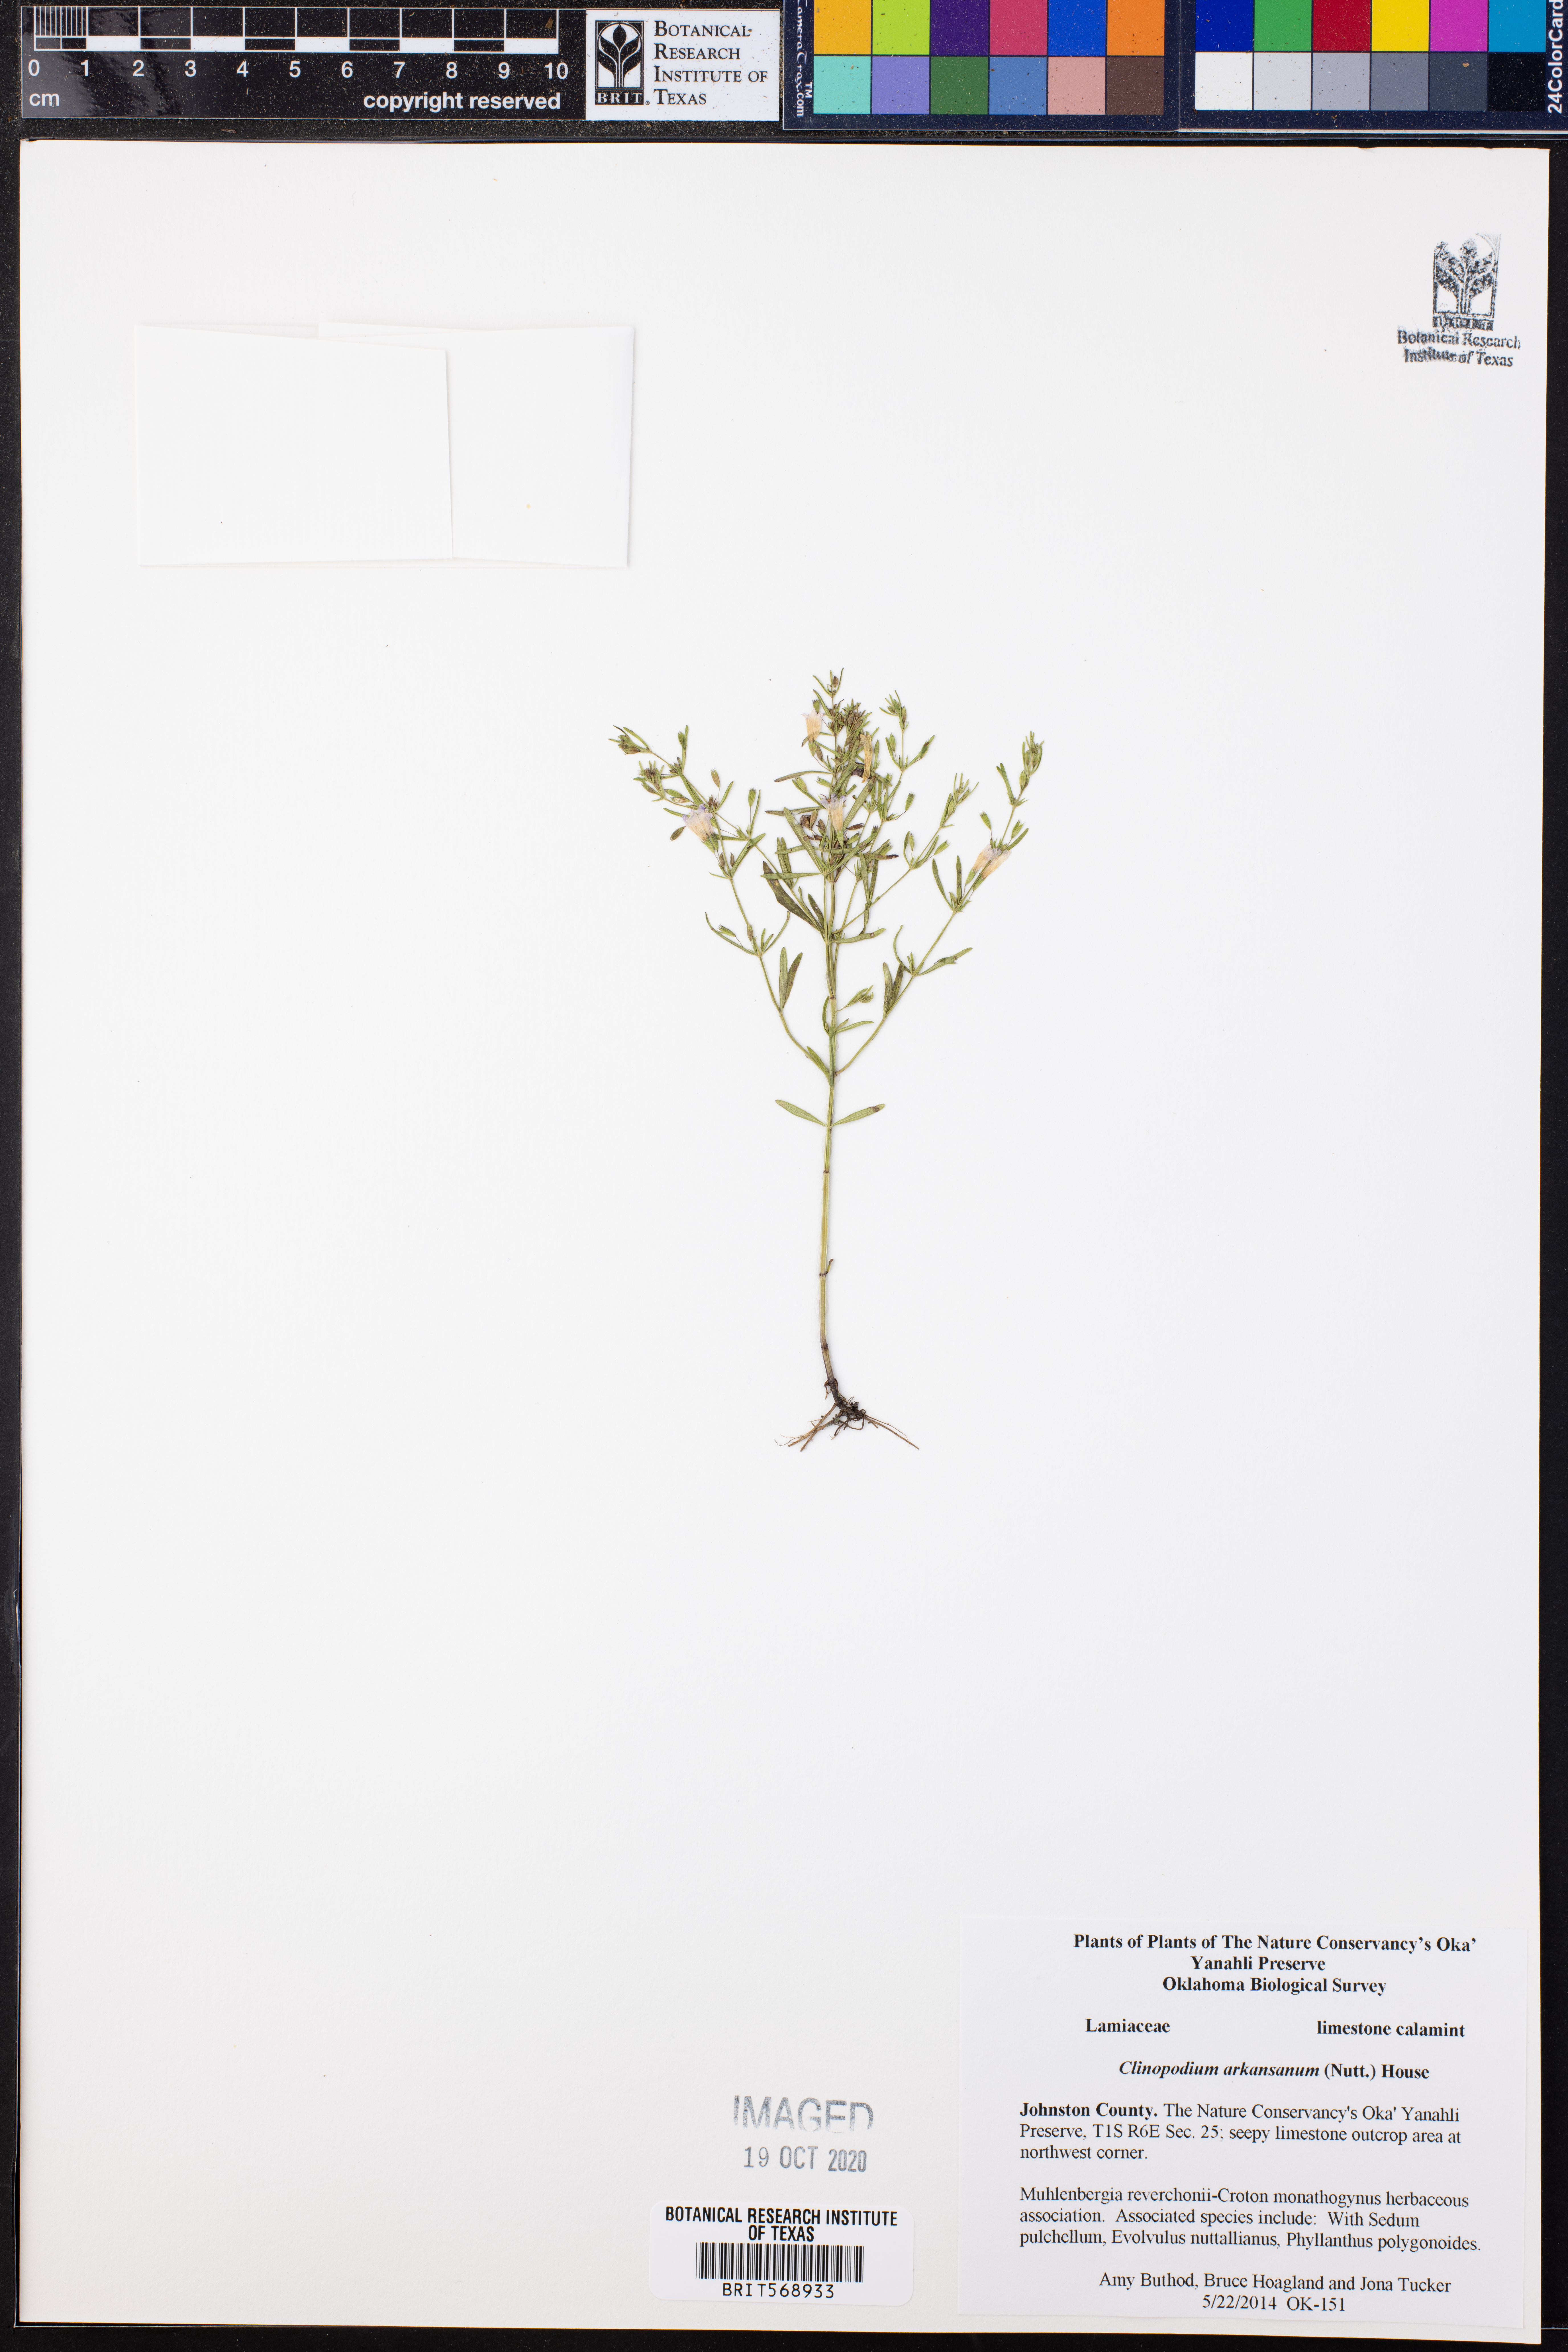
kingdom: Plantae
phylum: Tracheophyta
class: Magnoliopsida
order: Lamiales
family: Lamiaceae
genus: Clinopodium
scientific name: Clinopodium arkansanum
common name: Limestone calamint
